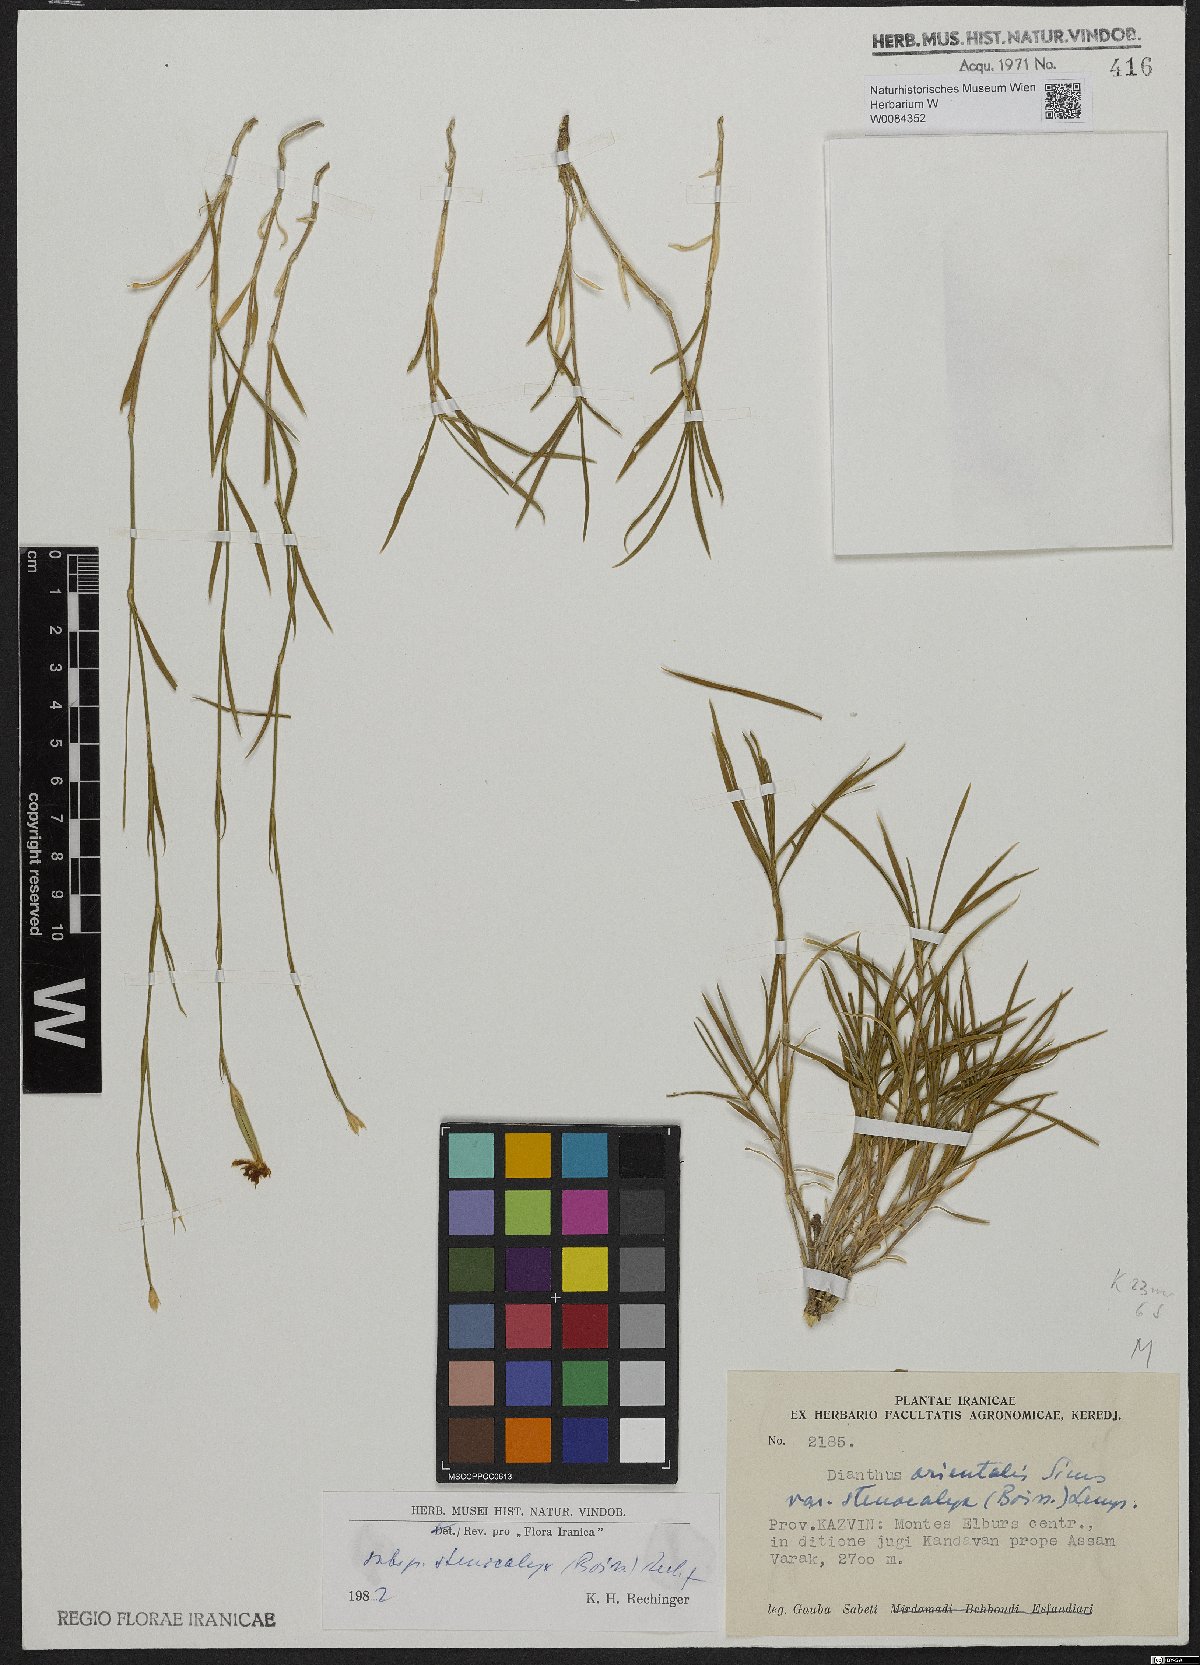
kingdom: Plantae
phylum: Tracheophyta
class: Magnoliopsida
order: Caryophyllales
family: Caryophyllaceae
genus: Dianthus
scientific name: Dianthus orientalis
